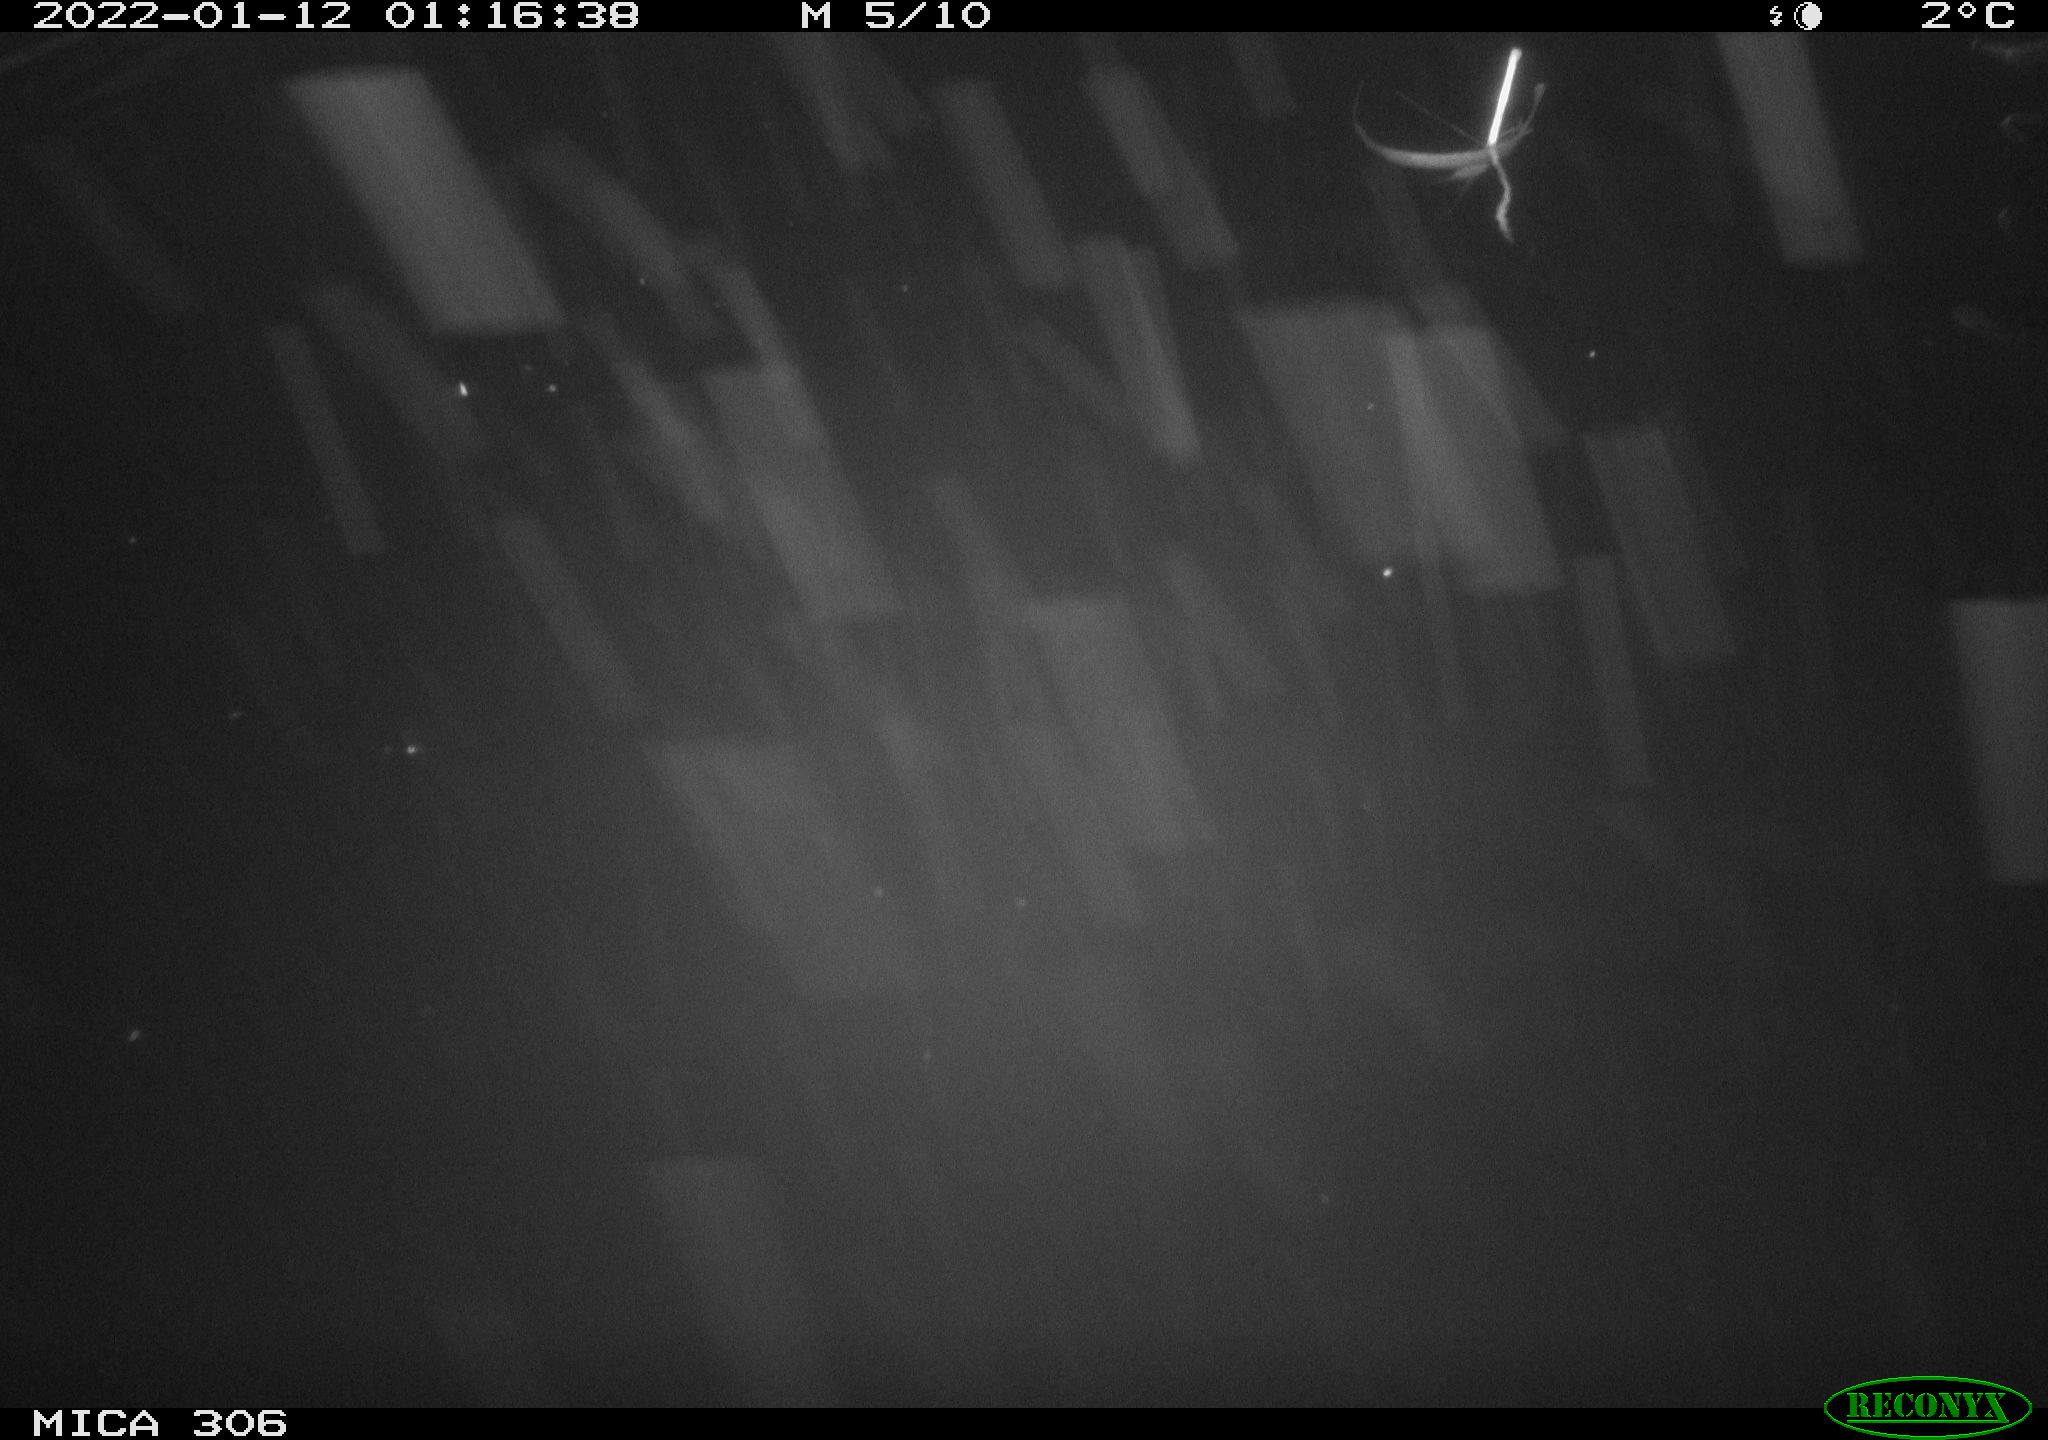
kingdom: Animalia
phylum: Chordata
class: Mammalia
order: Rodentia
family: Cricetidae
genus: Ondatra
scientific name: Ondatra zibethicus
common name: Muskrat
